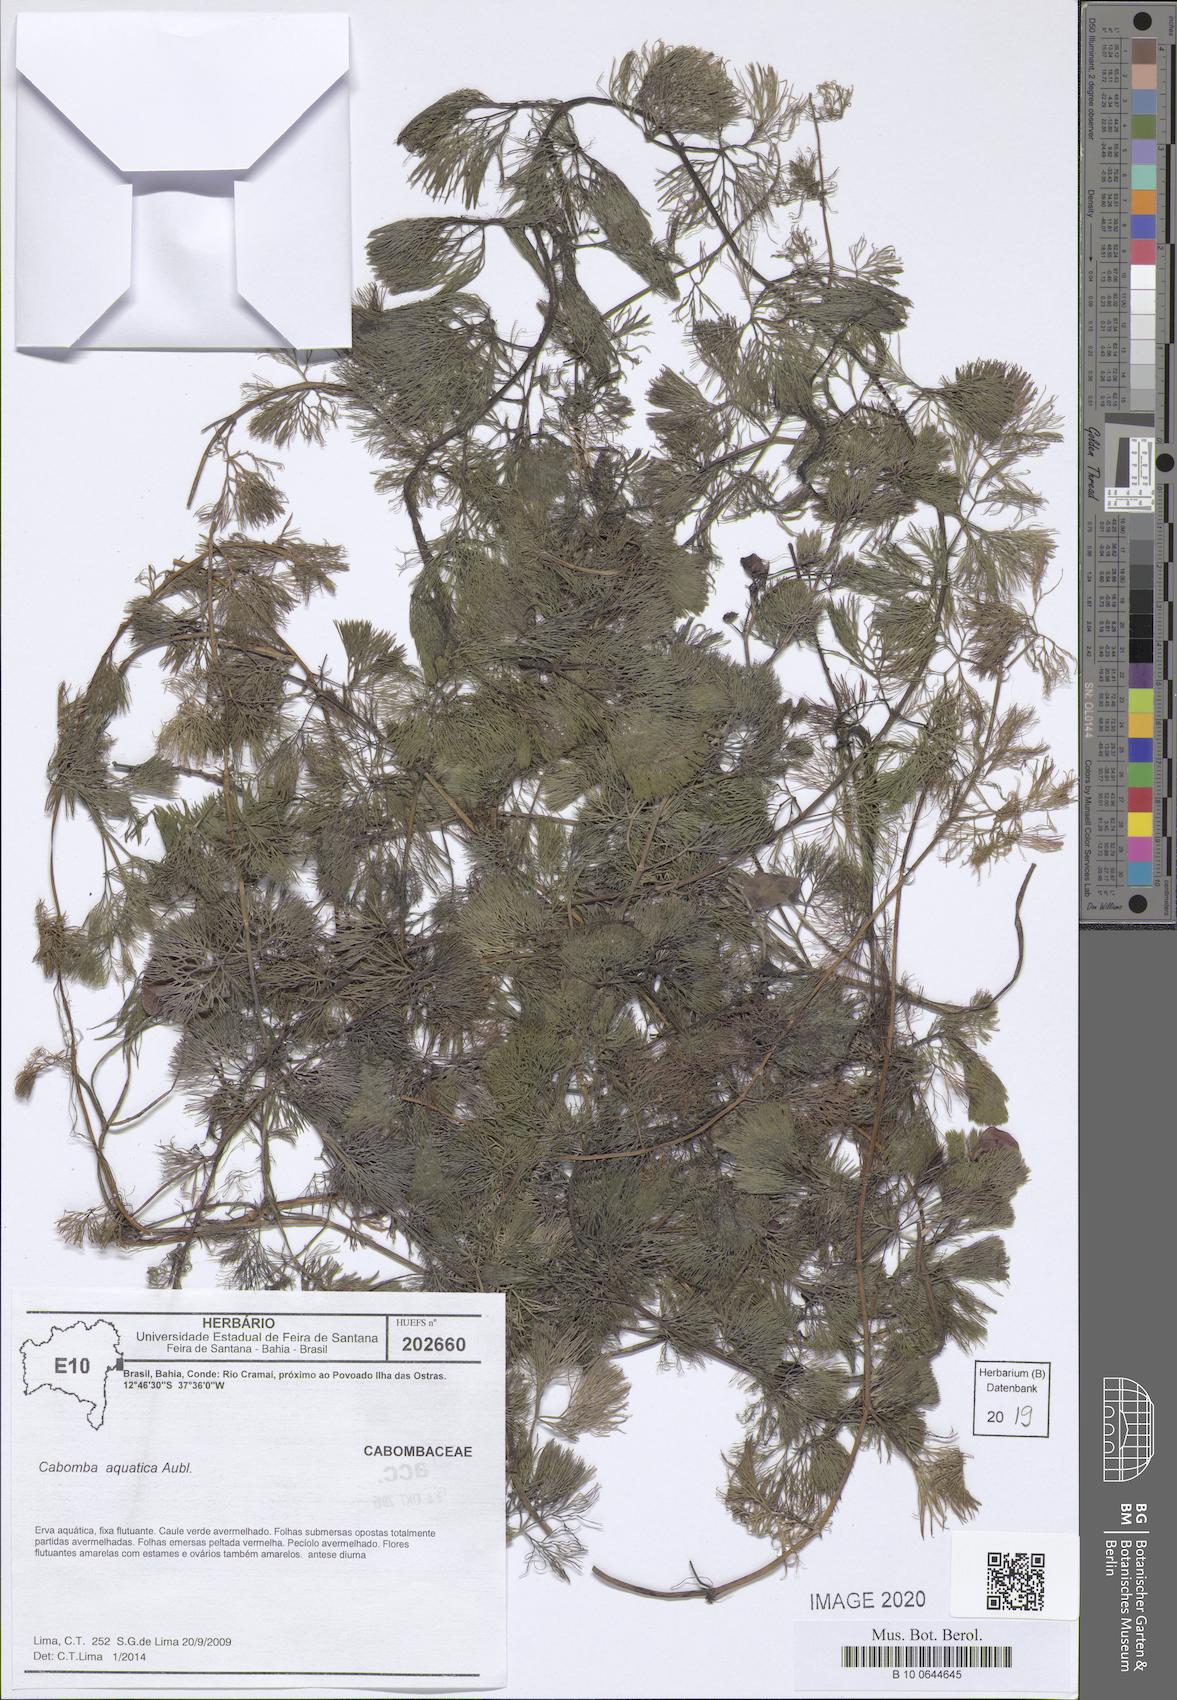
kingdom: Plantae
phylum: Tracheophyta
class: Magnoliopsida
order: Nymphaeales
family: Cabombaceae
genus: Cabomba
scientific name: Cabomba aquatica
